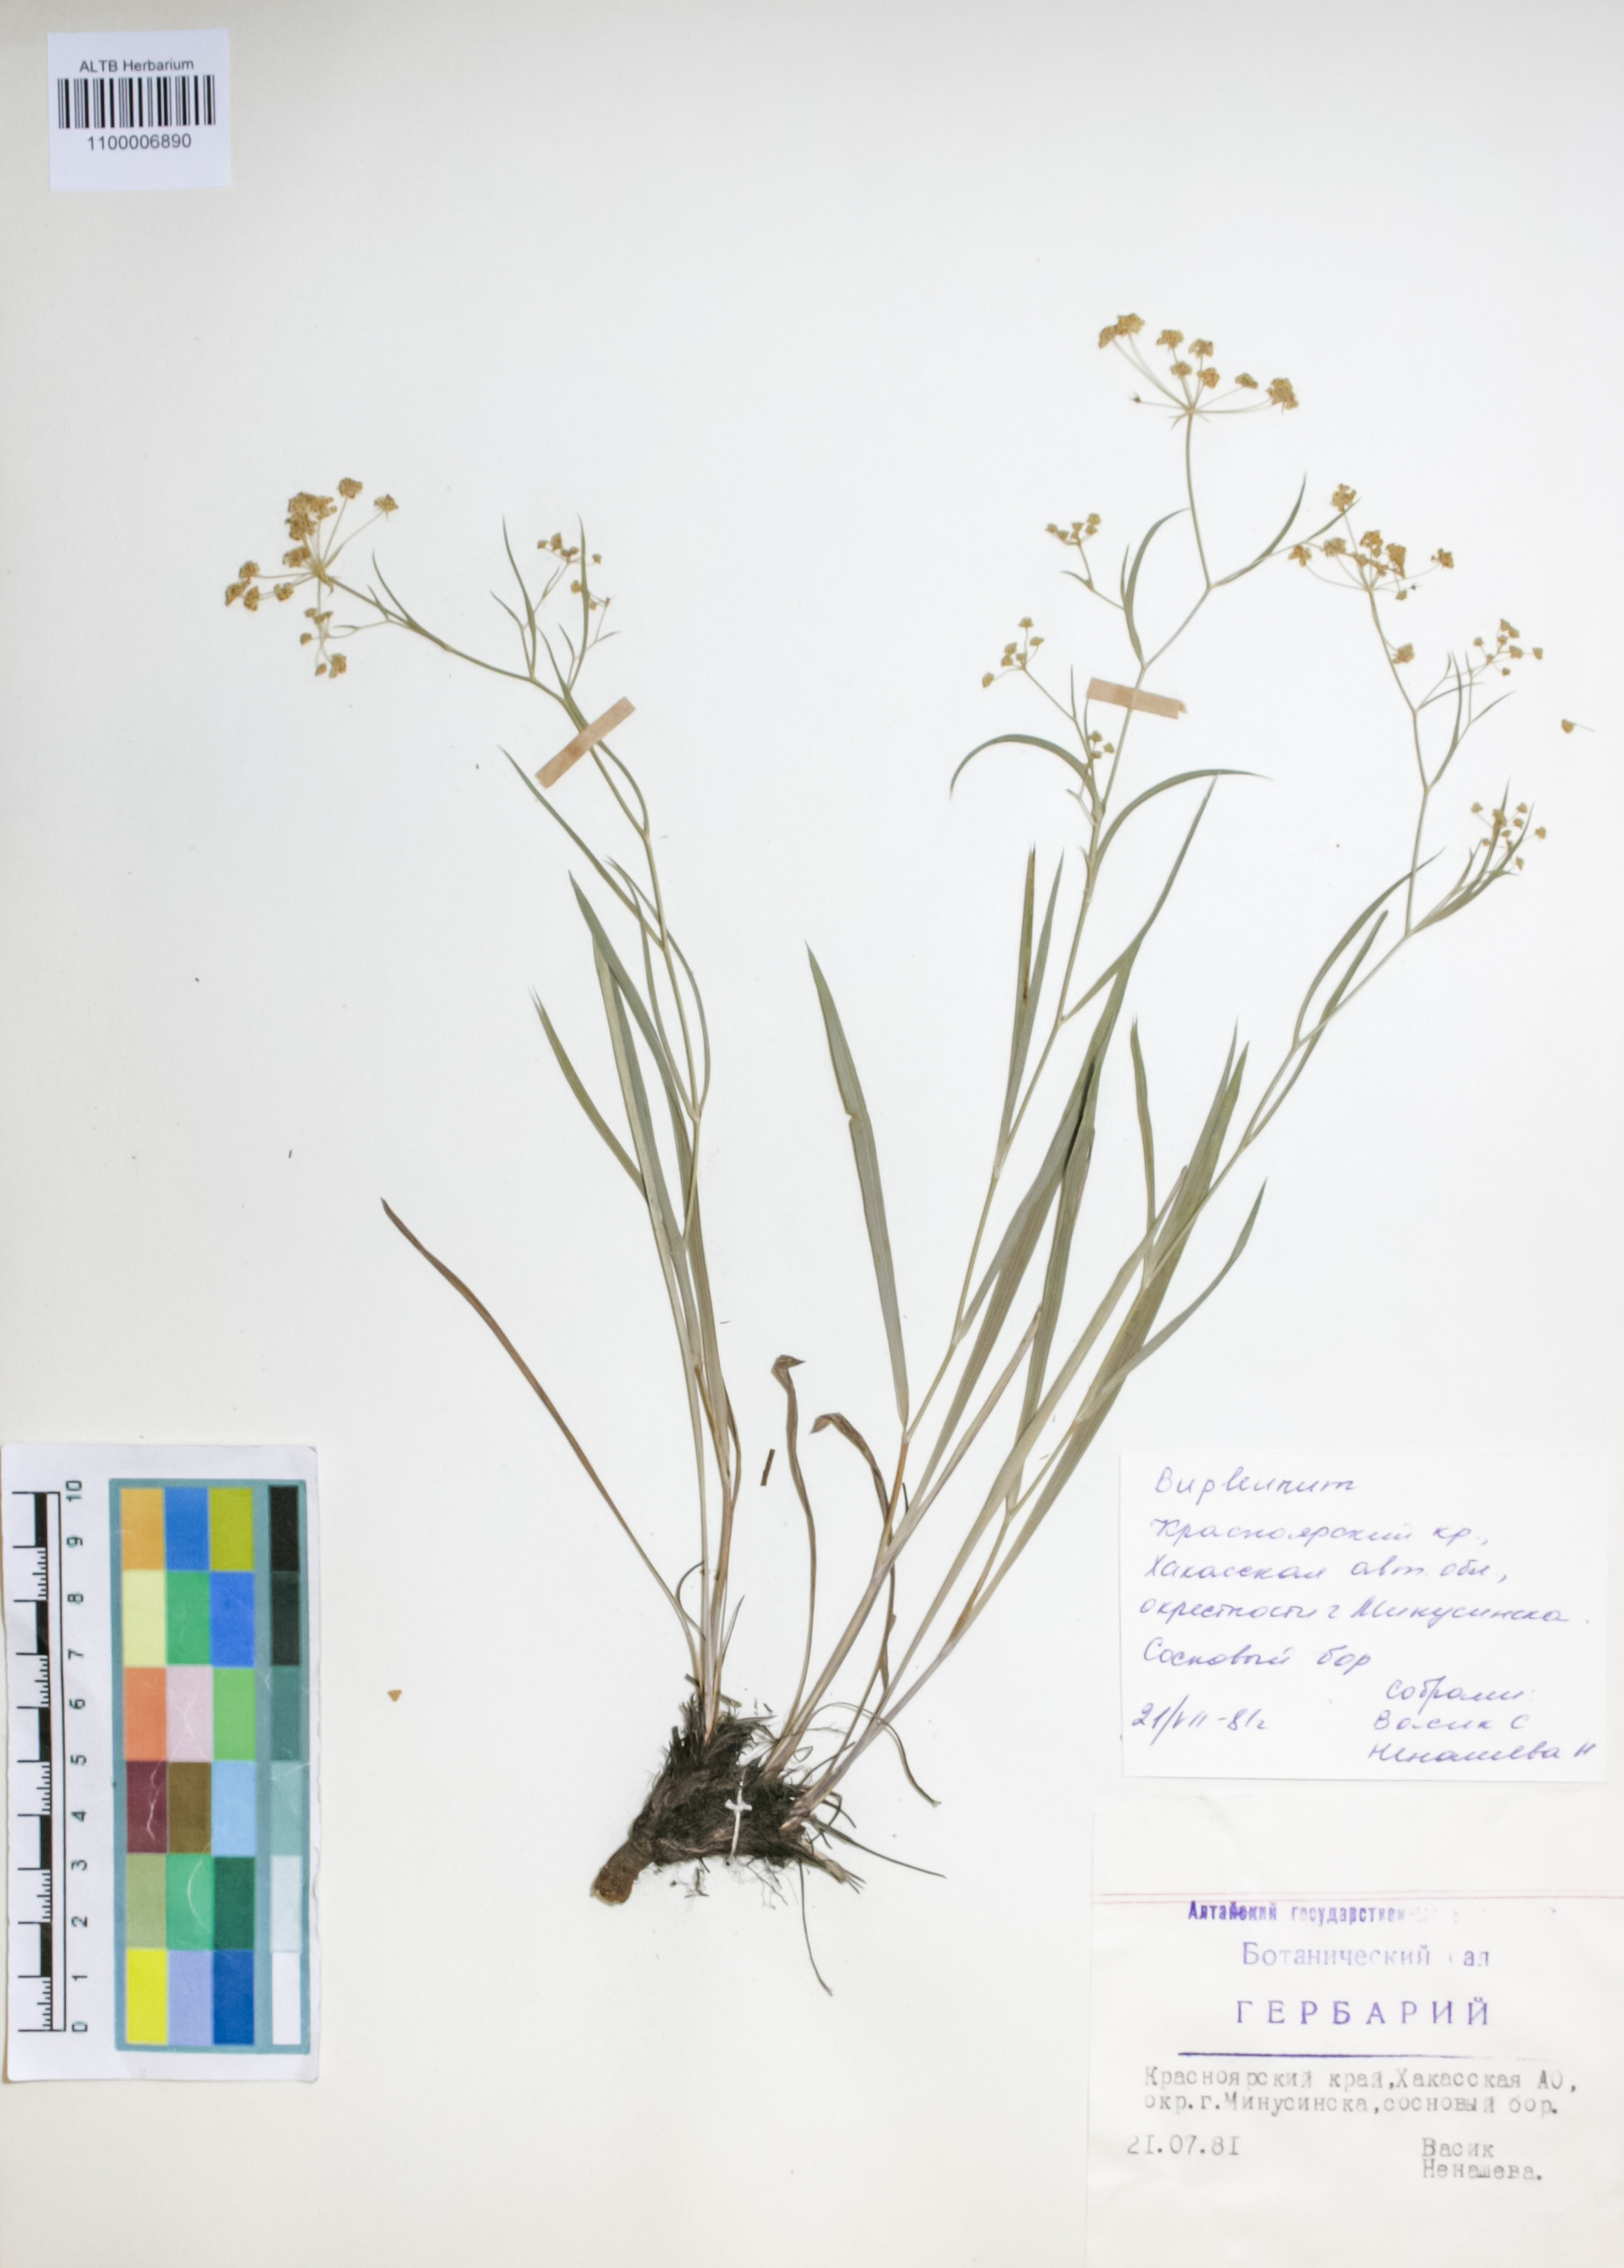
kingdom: Plantae
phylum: Tracheophyta
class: Magnoliopsida
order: Apiales
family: Apiaceae
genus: Bupleurum
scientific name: Bupleurum scorzonerifolium
